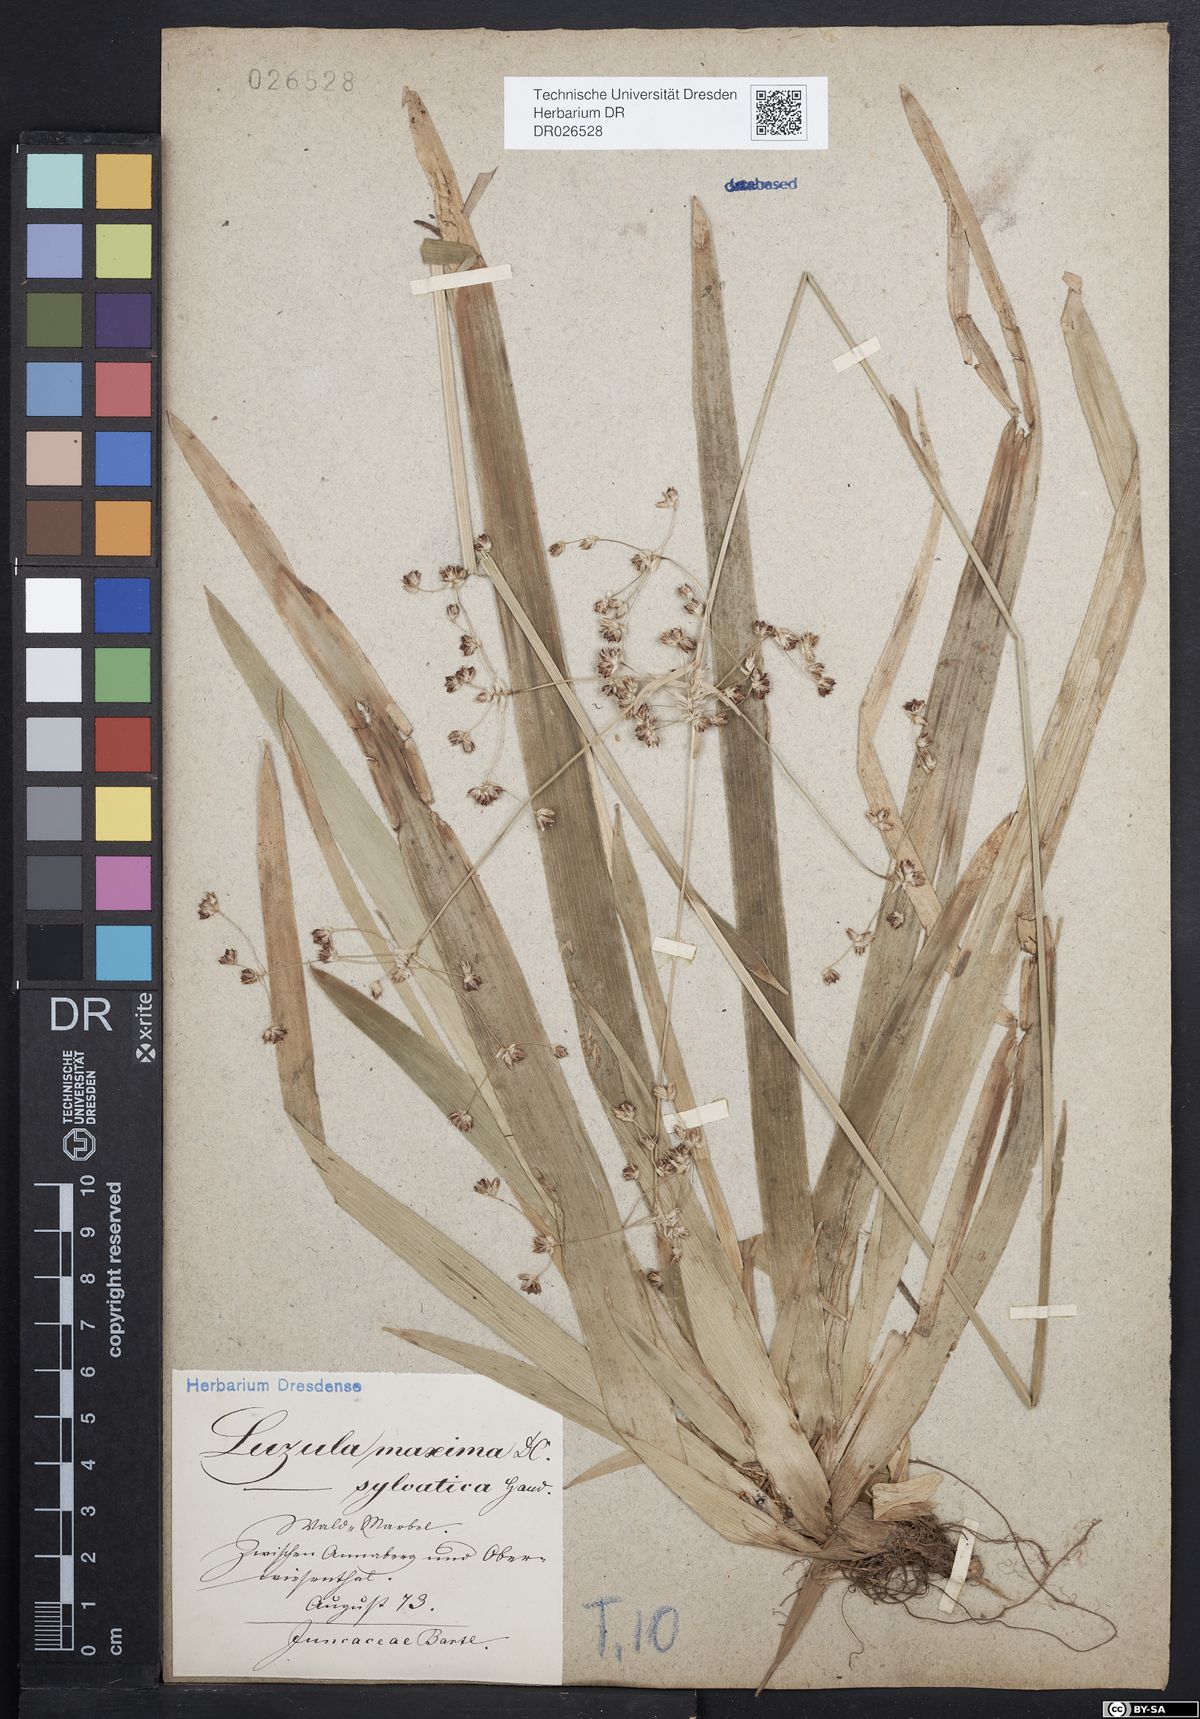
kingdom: Plantae
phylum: Tracheophyta
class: Liliopsida
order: Poales
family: Juncaceae
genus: Luzula
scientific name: Luzula sylvatica
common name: Great wood-rush
